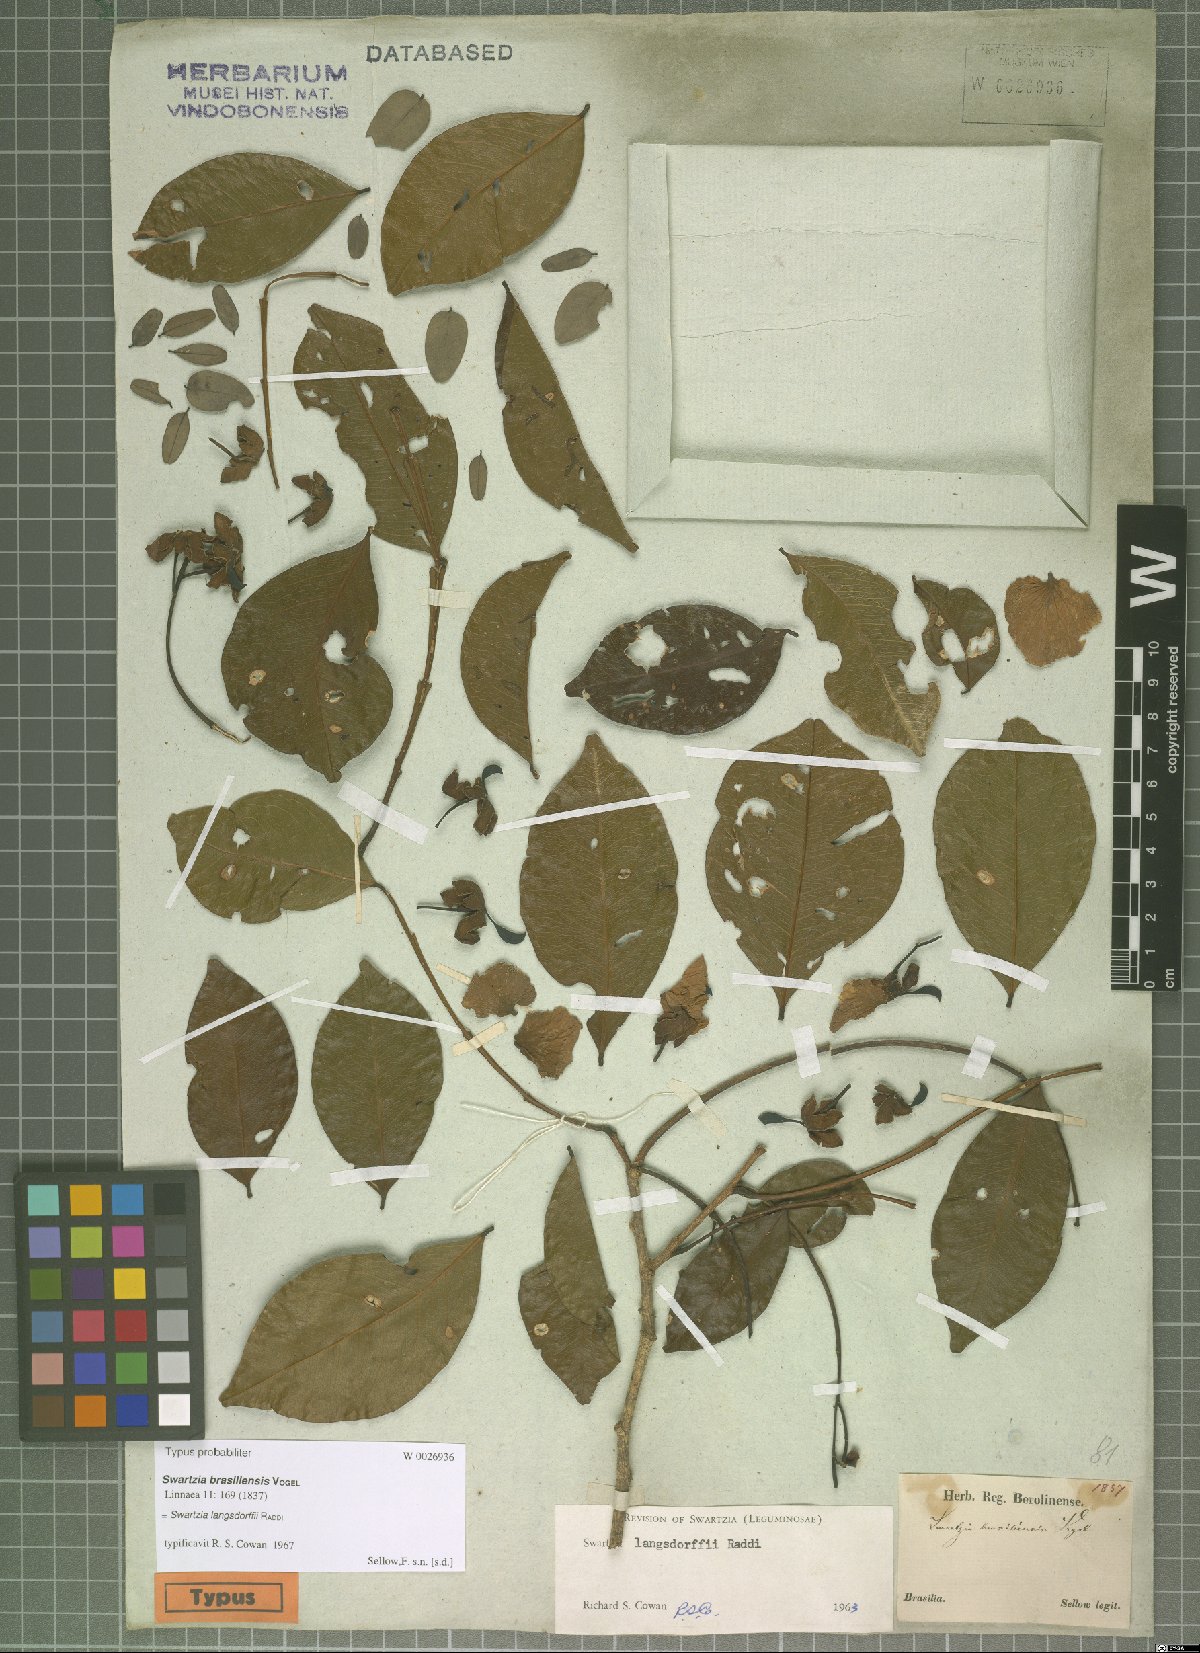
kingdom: Plantae
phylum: Tracheophyta
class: Magnoliopsida
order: Fabales
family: Fabaceae
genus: Swartzia
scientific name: Swartzia langsdorffii
